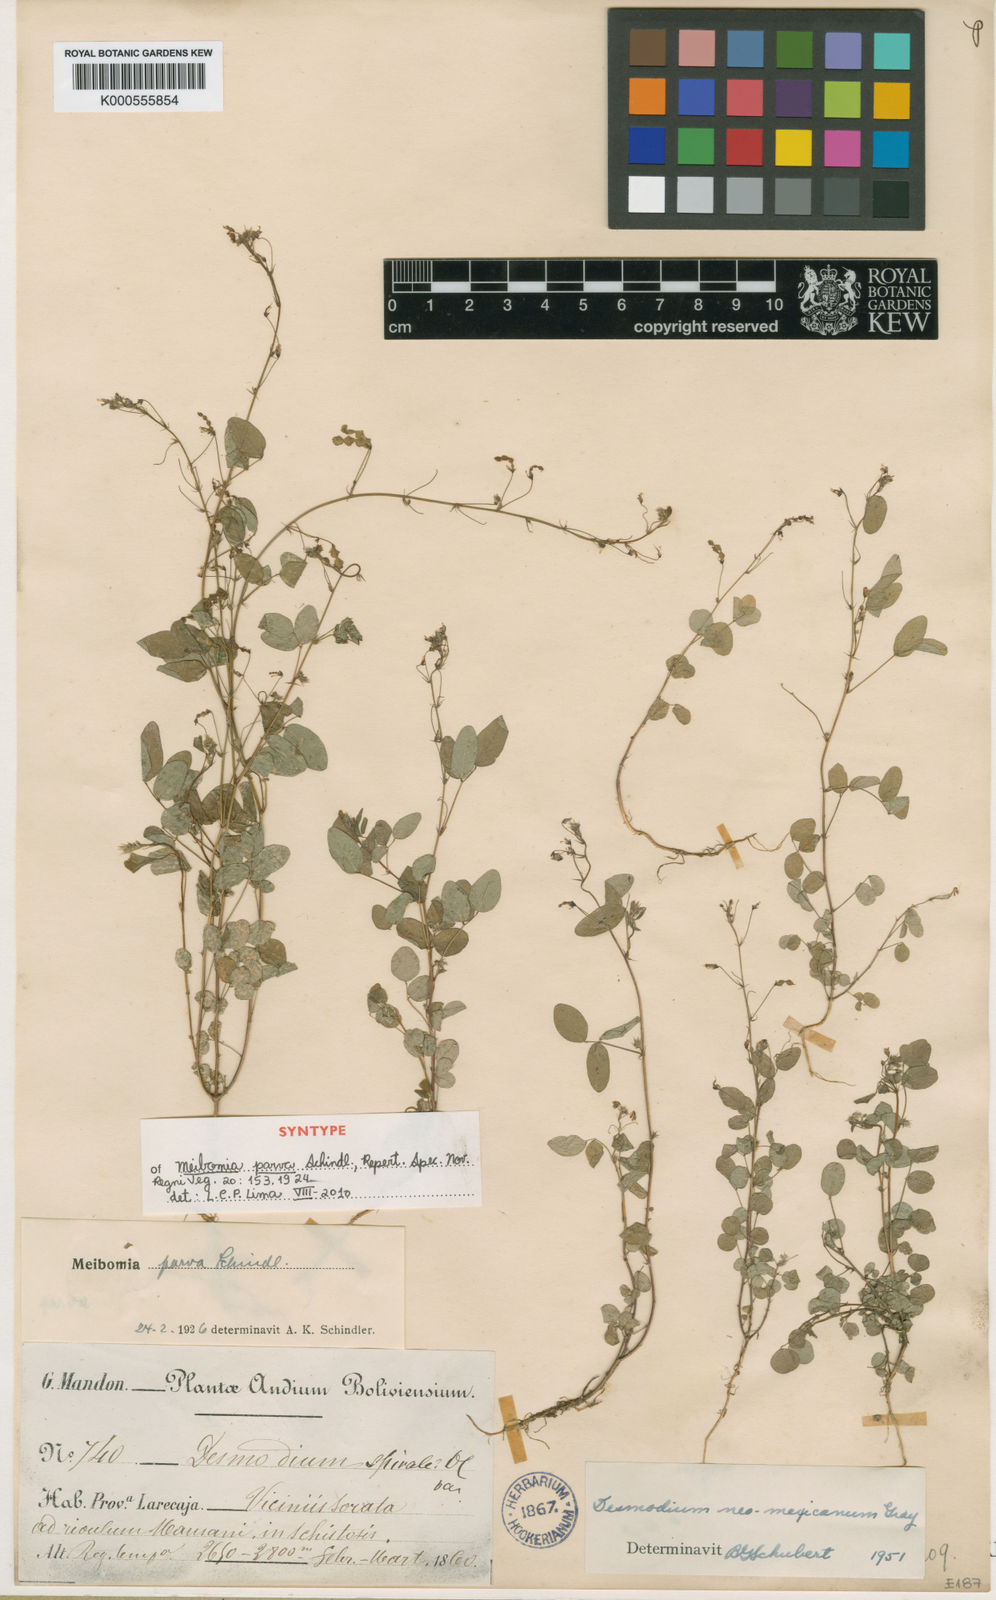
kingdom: Plantae
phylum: Tracheophyta
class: Magnoliopsida
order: Fabales
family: Fabaceae
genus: Desmodium
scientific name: Desmodium procumbens
